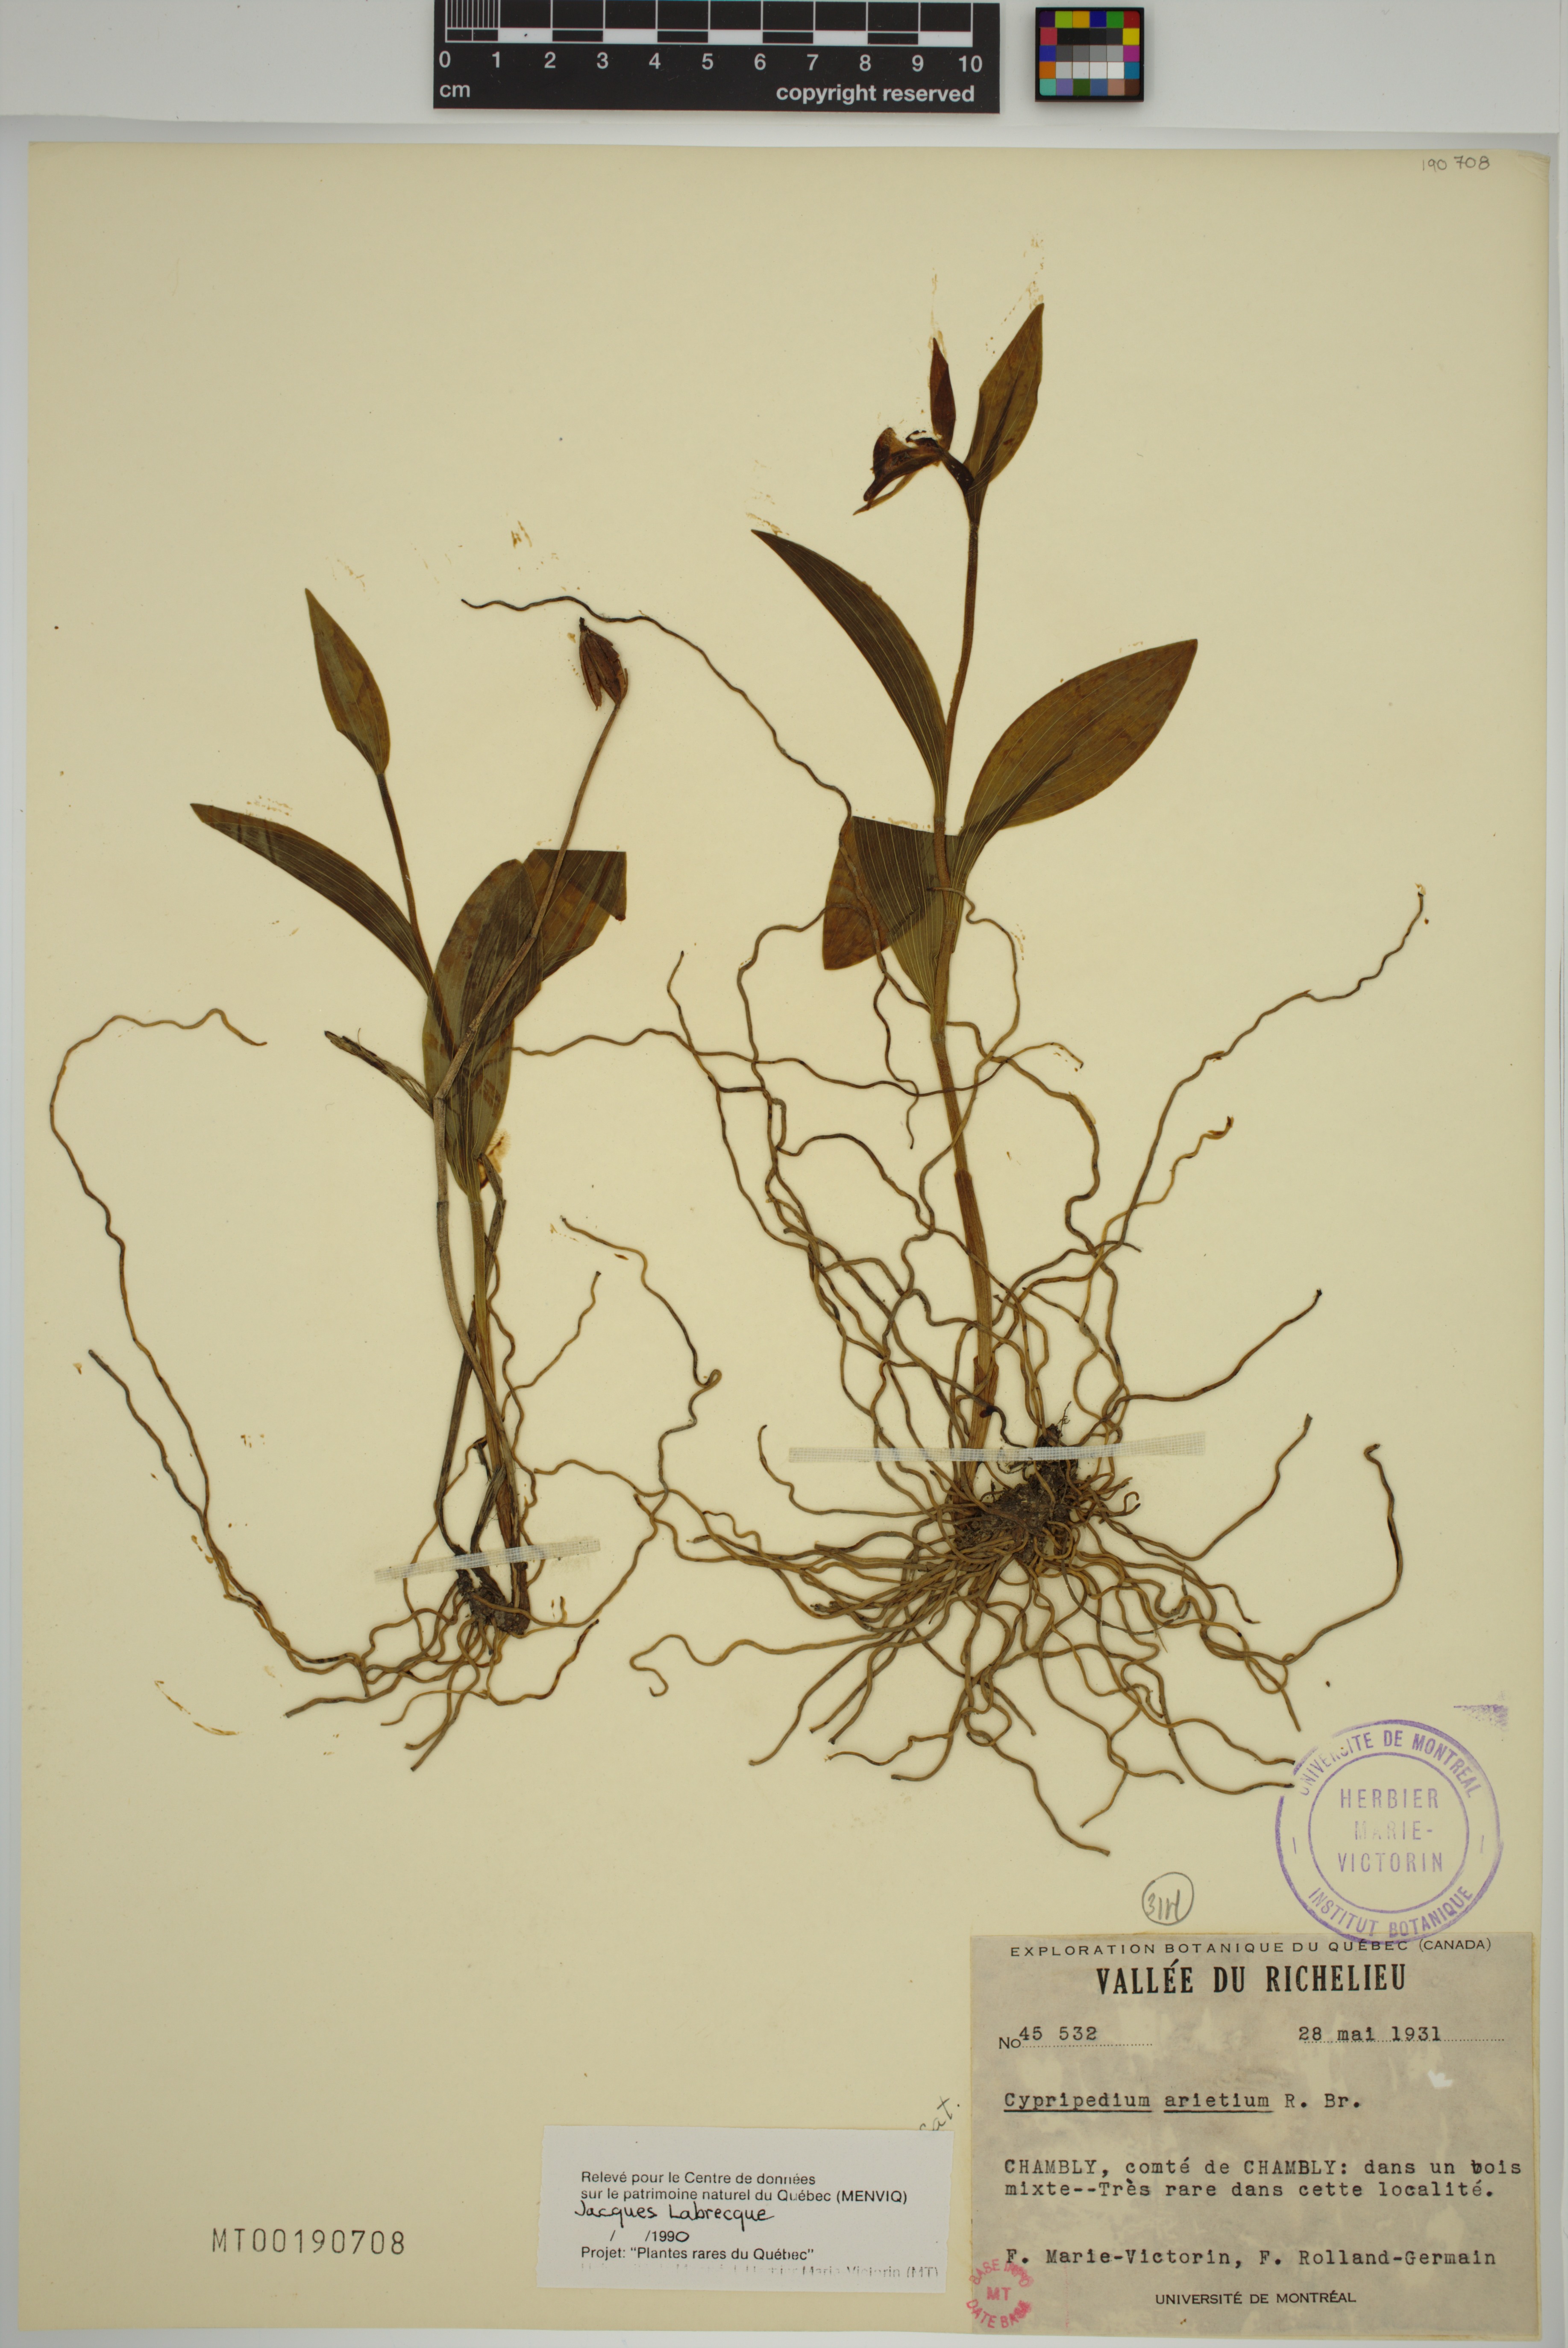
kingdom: Plantae
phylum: Tracheophyta
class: Liliopsida
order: Asparagales
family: Orchidaceae
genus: Cypripedium
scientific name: Cypripedium arietinum
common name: Ram's-head
